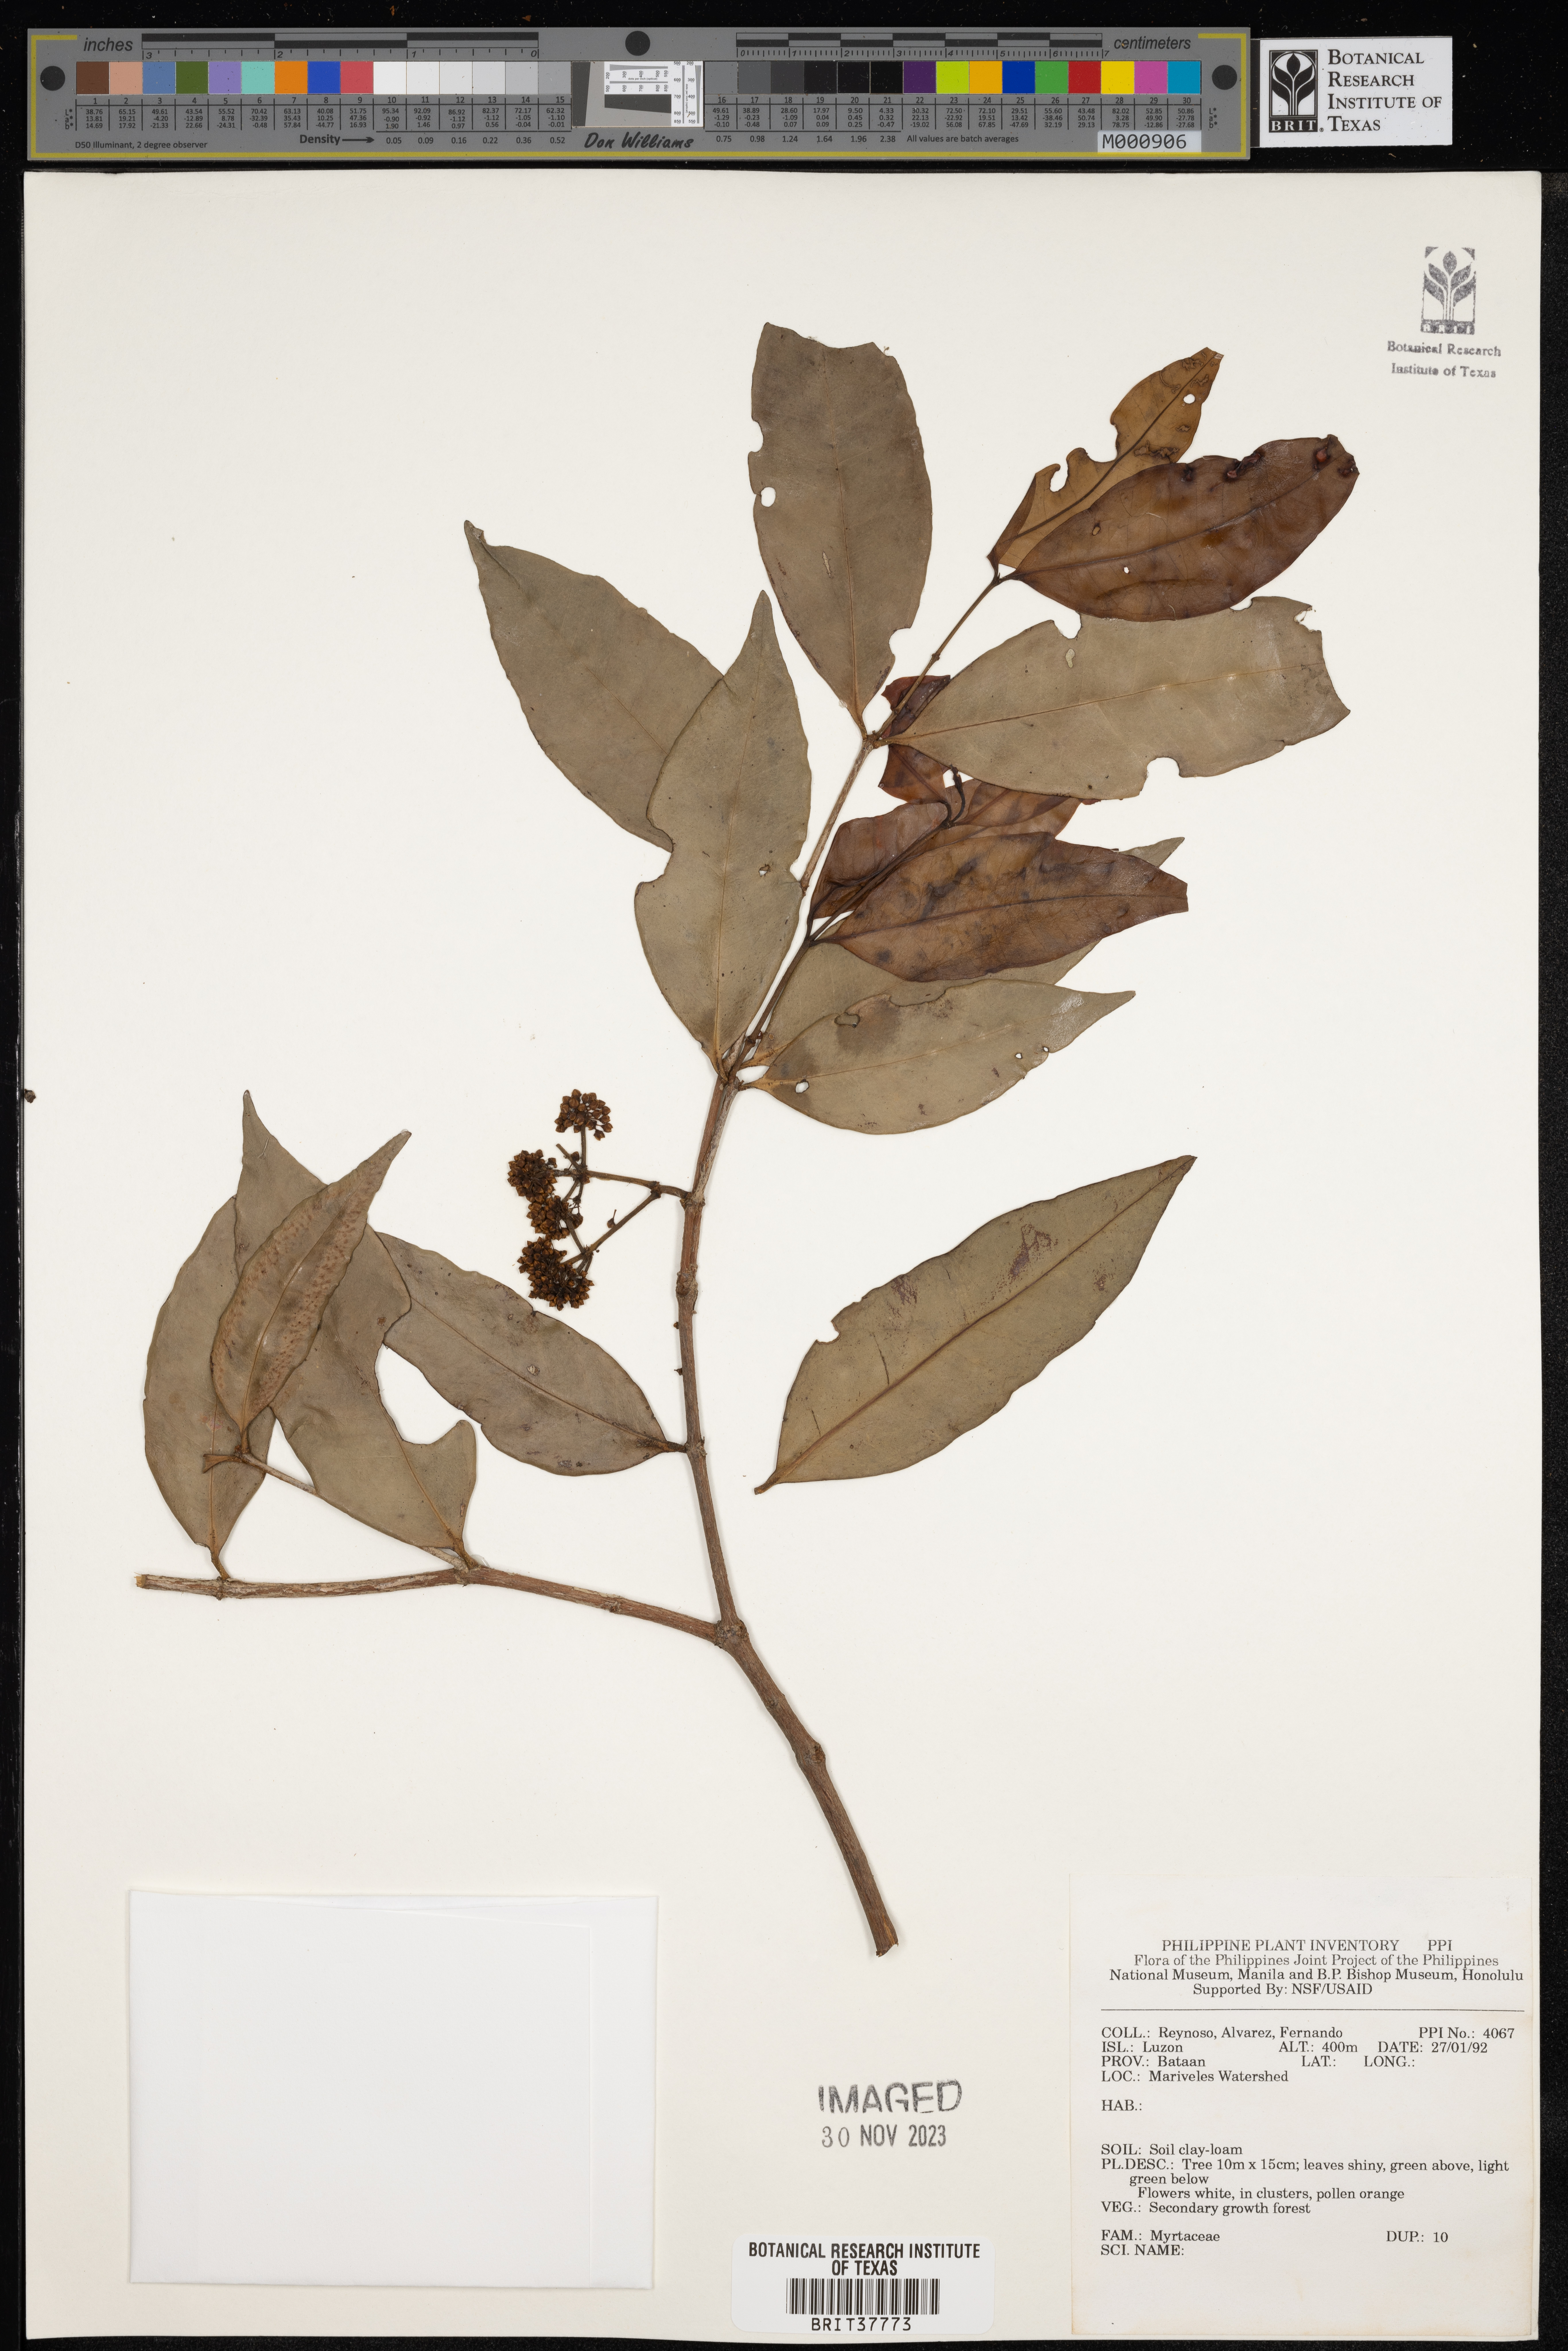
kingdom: Plantae
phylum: Tracheophyta
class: Magnoliopsida
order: Myrtales
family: Myrtaceae
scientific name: Myrtaceae
